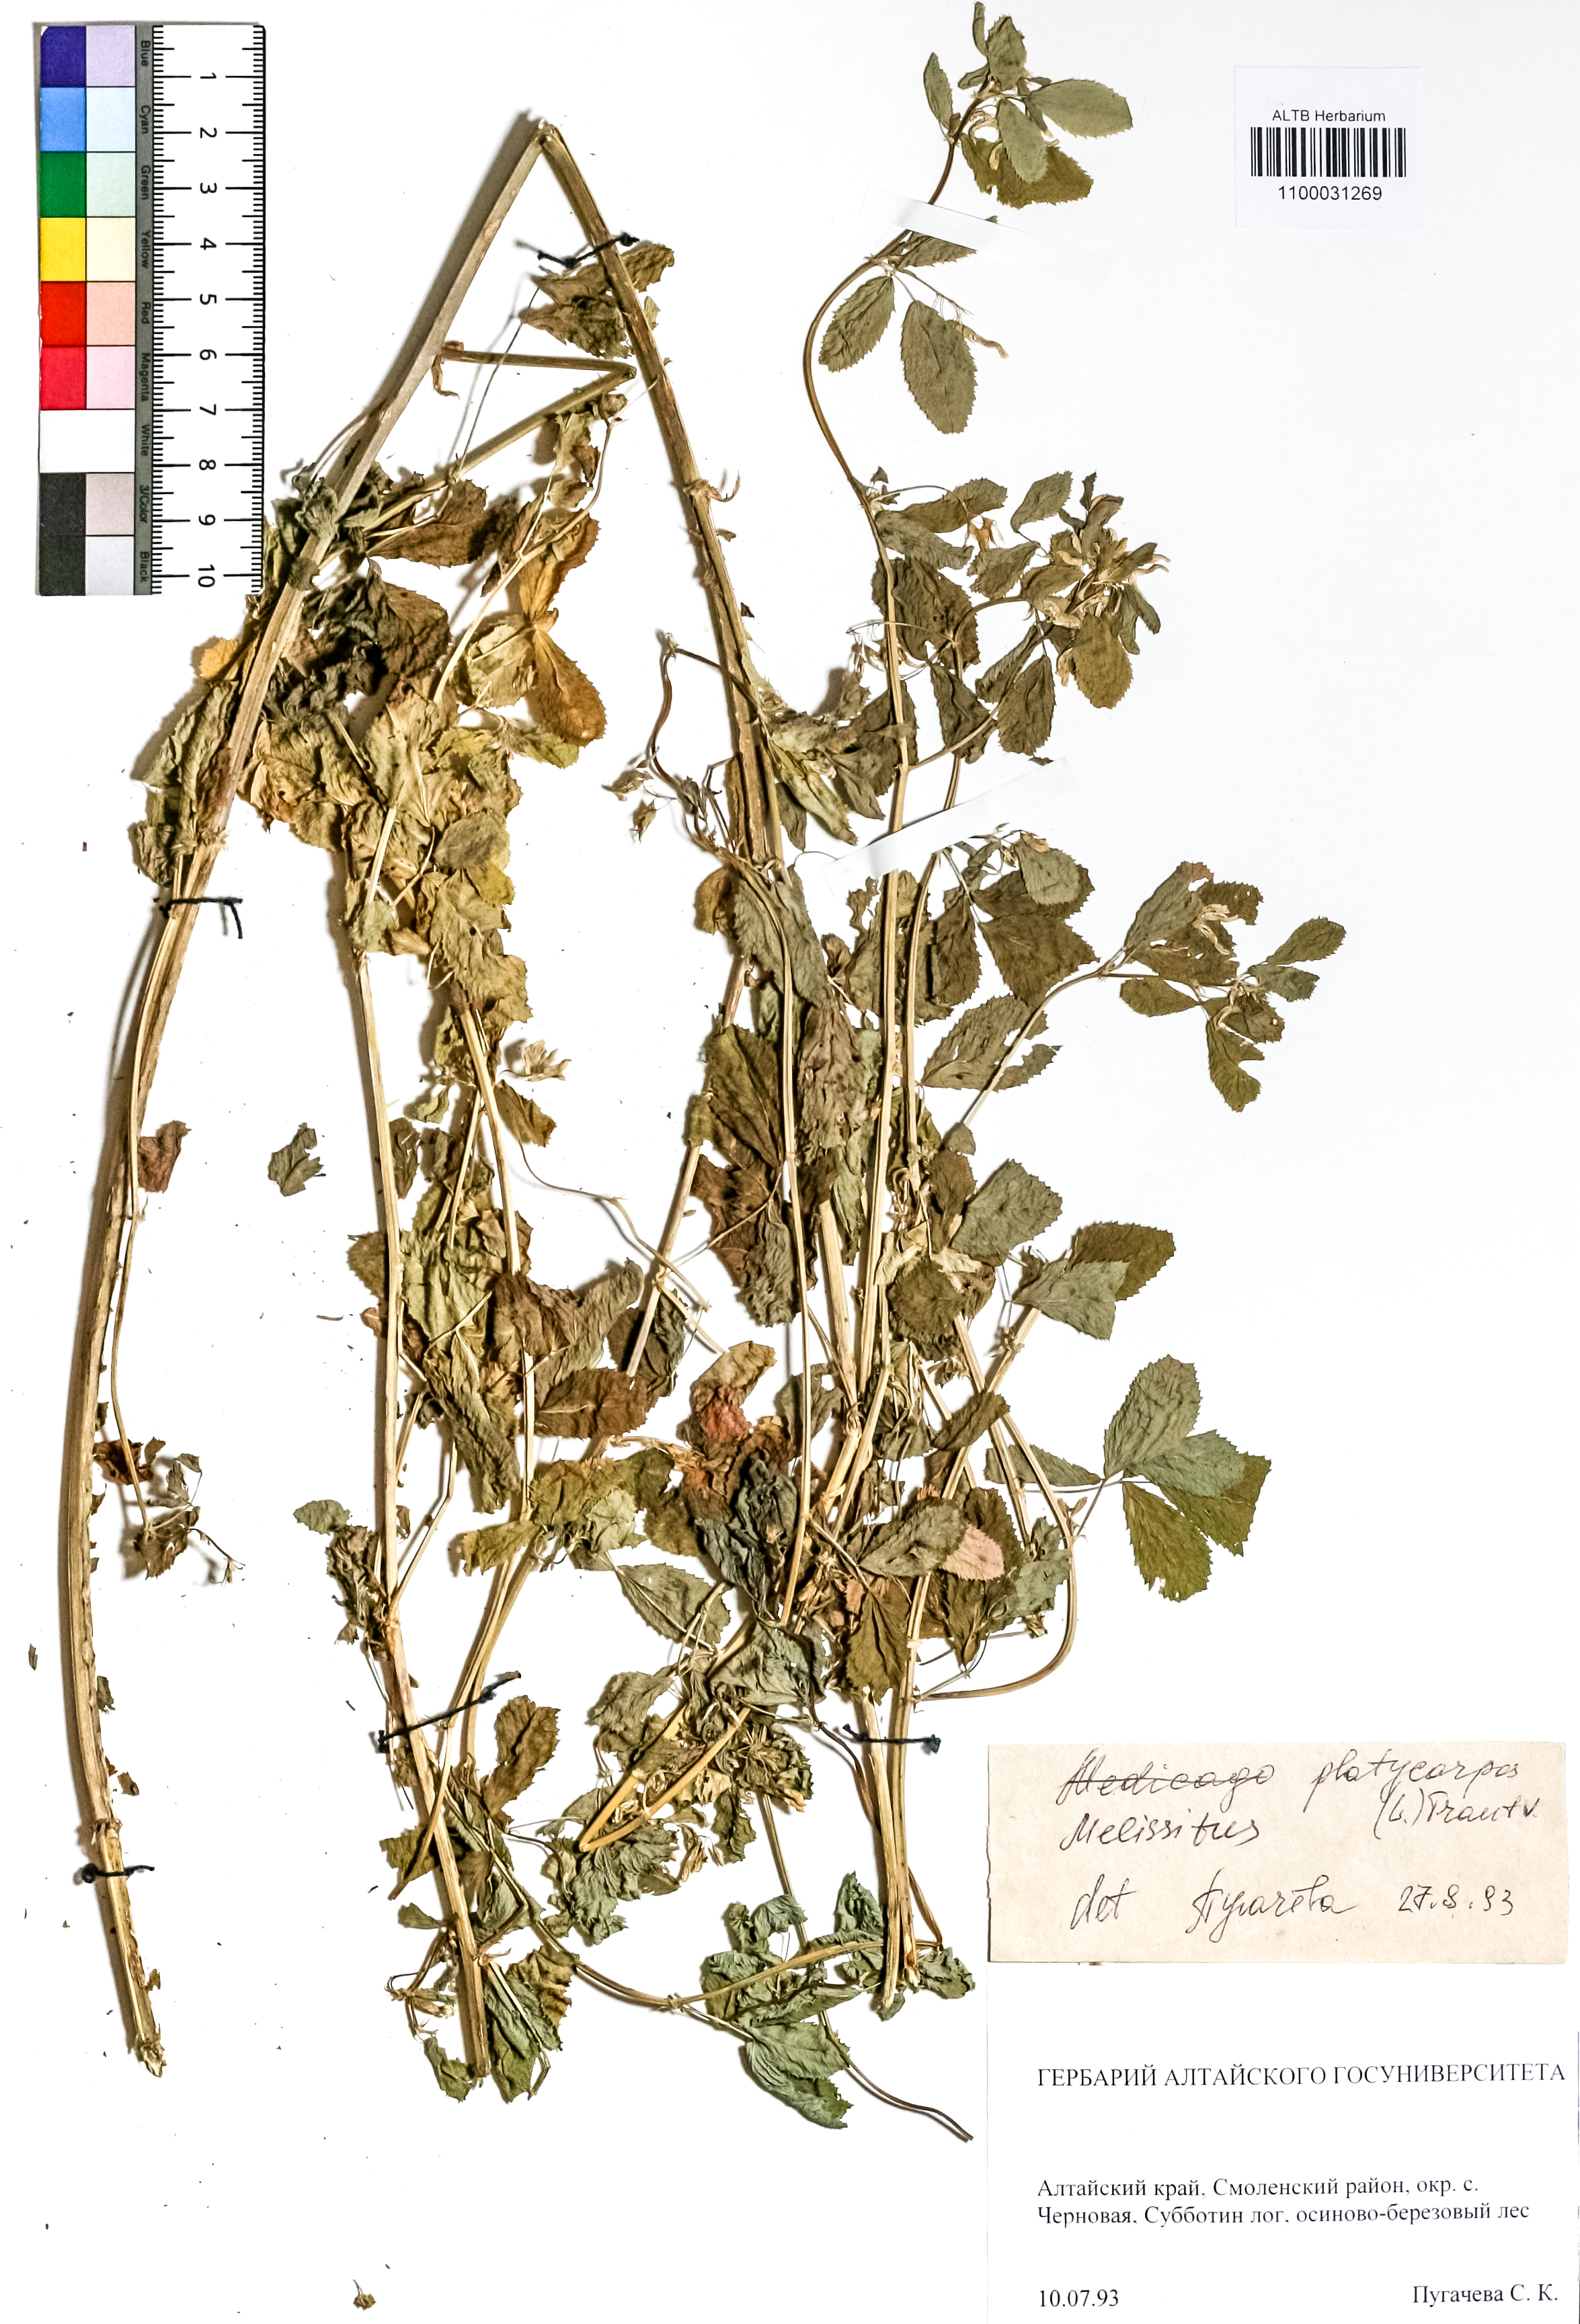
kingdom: Plantae
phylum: Tracheophyta
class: Magnoliopsida
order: Fabales
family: Fabaceae
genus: Medicago
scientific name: Medicago platycarpos
